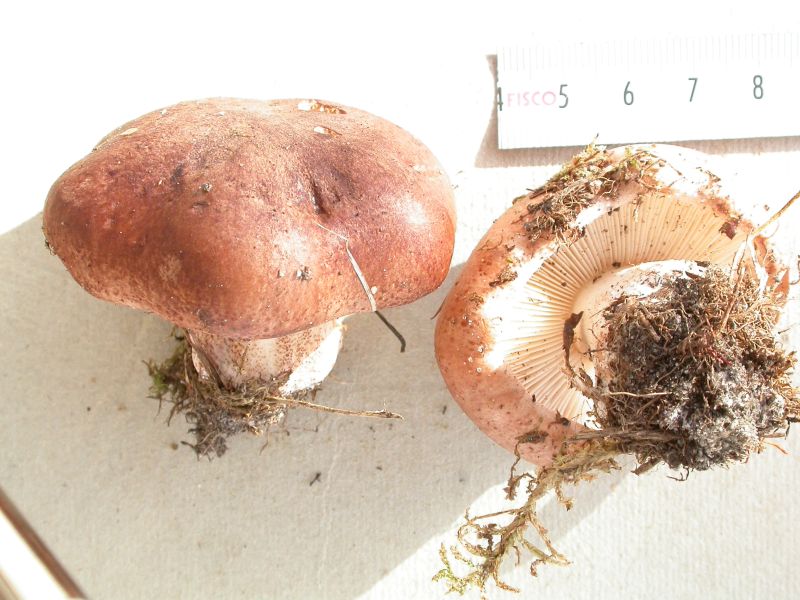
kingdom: Fungi
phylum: Basidiomycota
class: Agaricomycetes
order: Agaricales
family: Tricholomataceae
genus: Tricholoma
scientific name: Tricholoma populinum
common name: poppel-ridderhat
